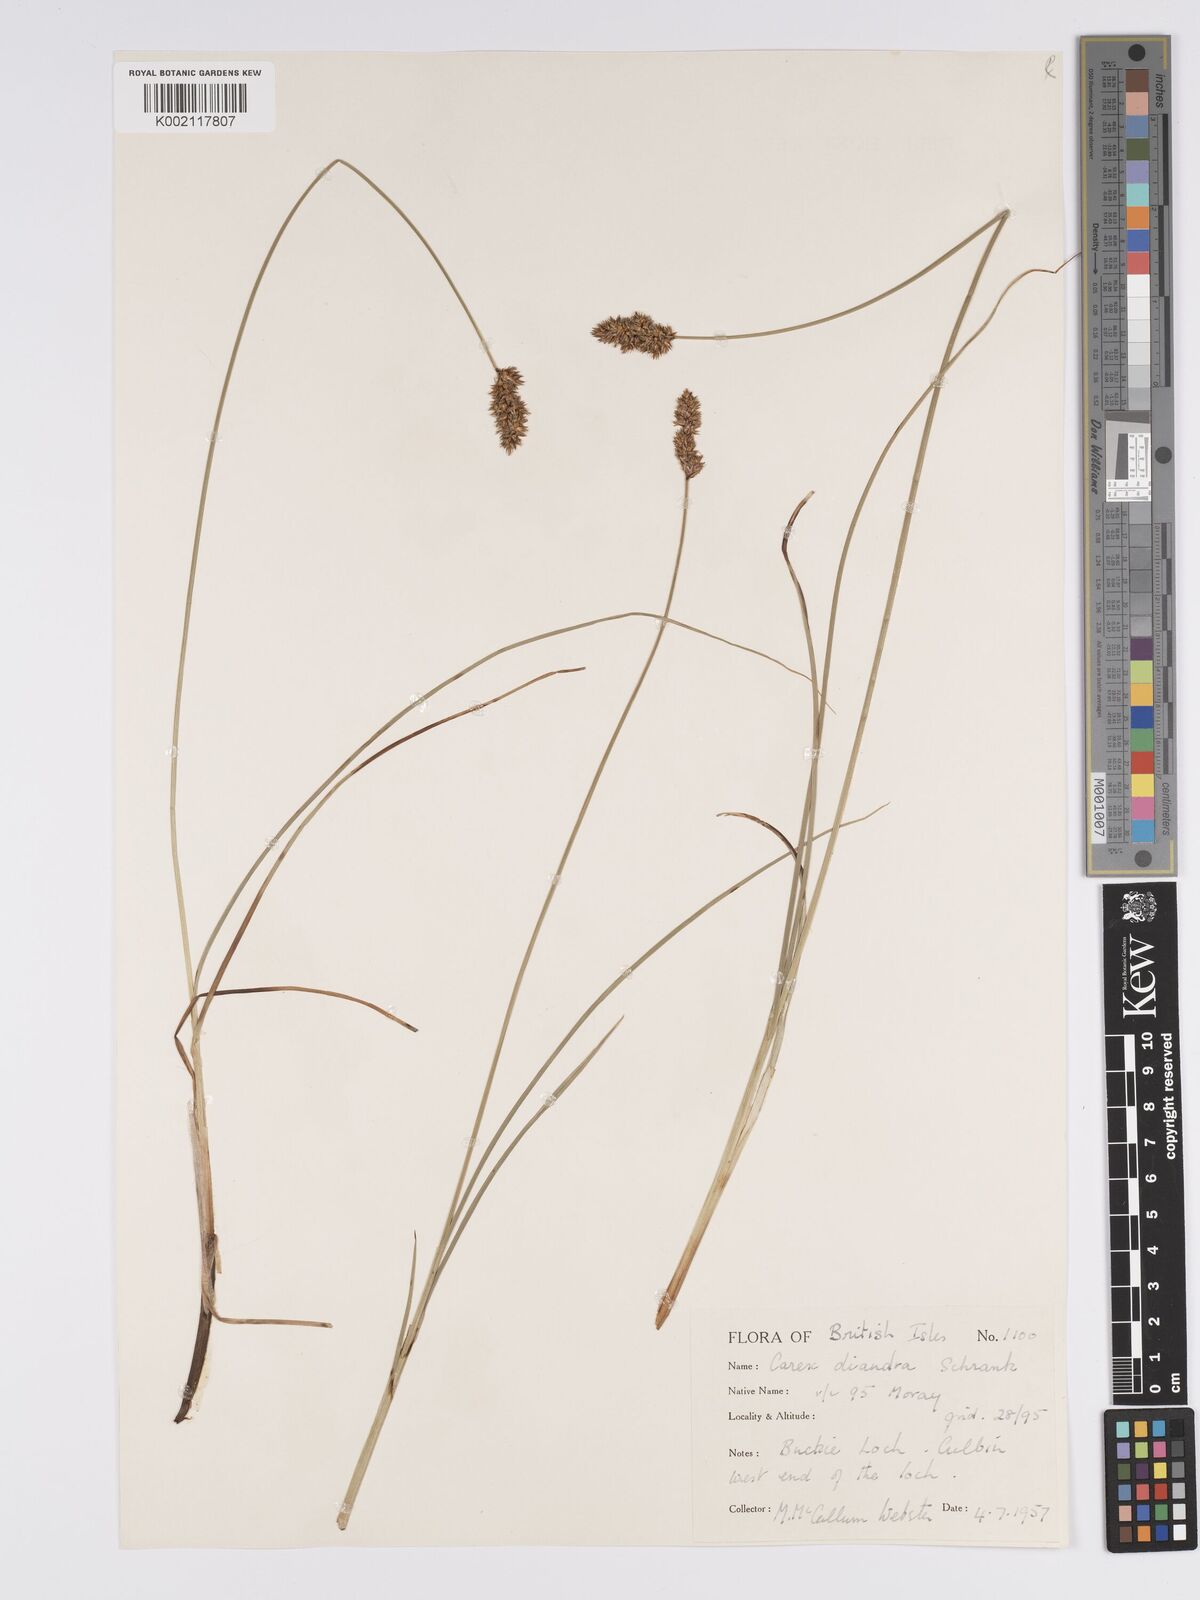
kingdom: Plantae
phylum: Tracheophyta
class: Liliopsida
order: Poales
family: Cyperaceae
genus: Carex
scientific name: Carex diandra
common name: Lesser tussock-sedge
